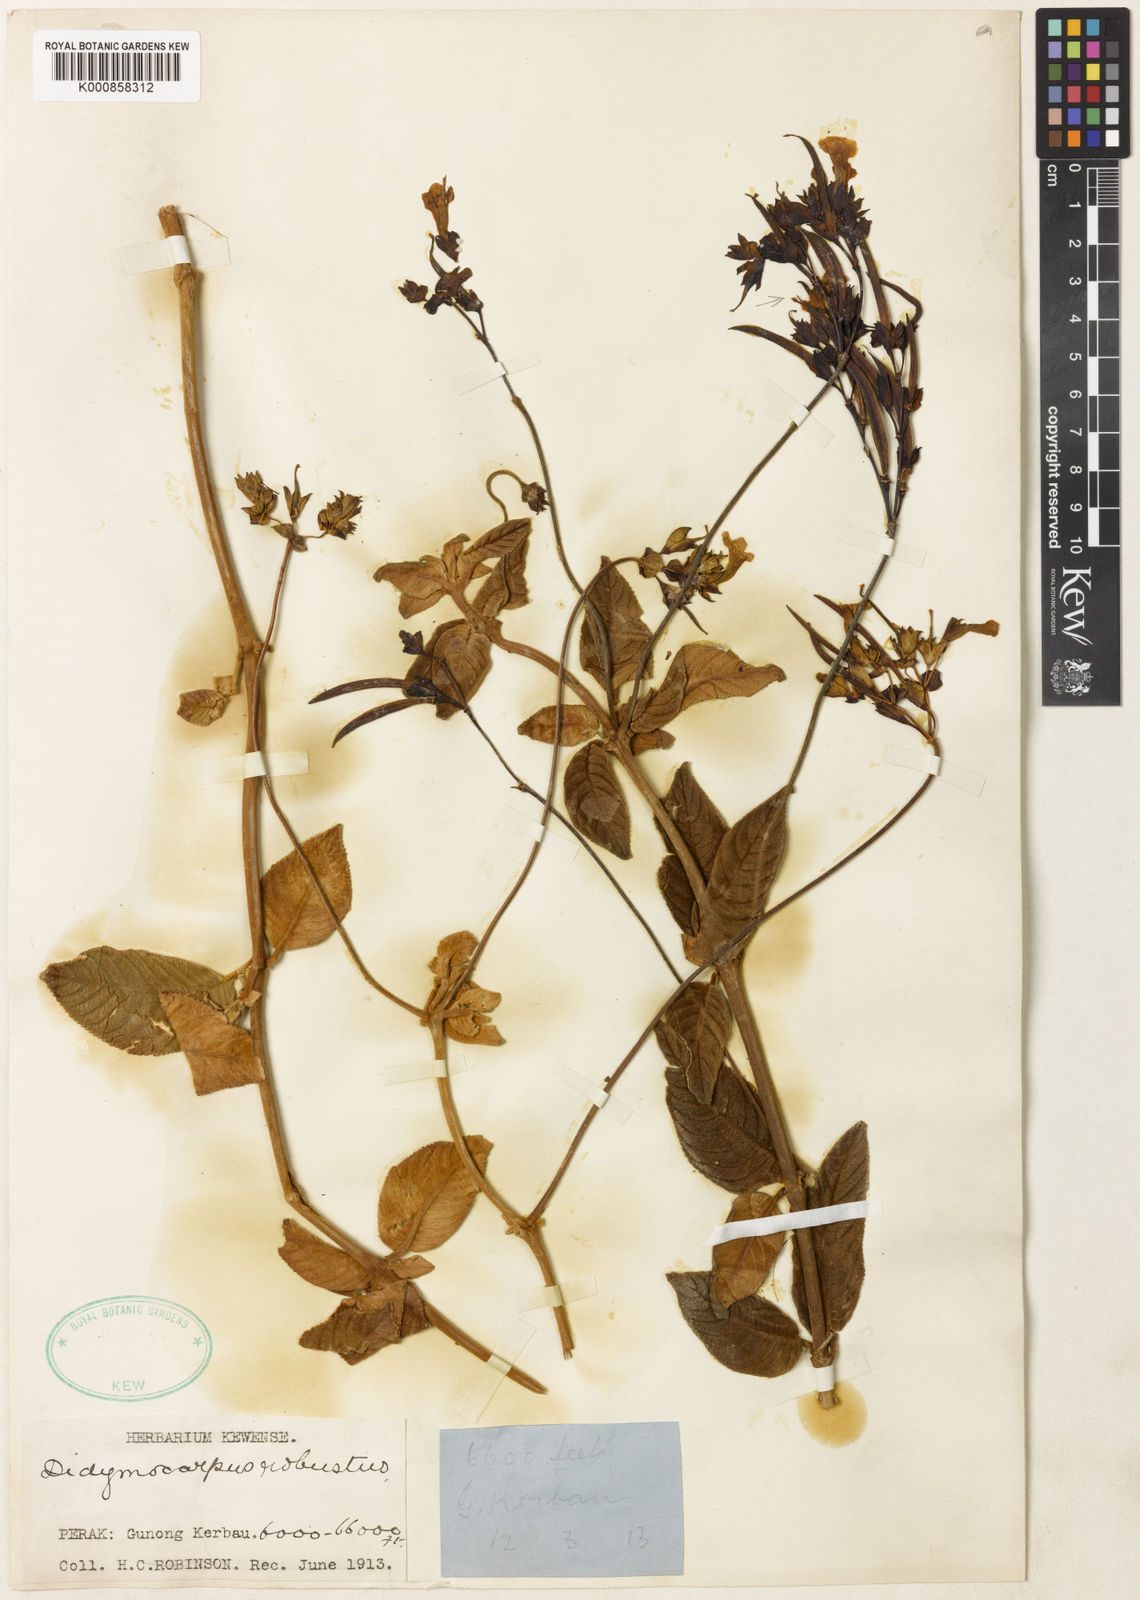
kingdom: Plantae
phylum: Tracheophyta
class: Magnoliopsida
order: Lamiales
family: Gesneriaceae
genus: Didymocarpus
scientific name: Didymocarpus robustus
